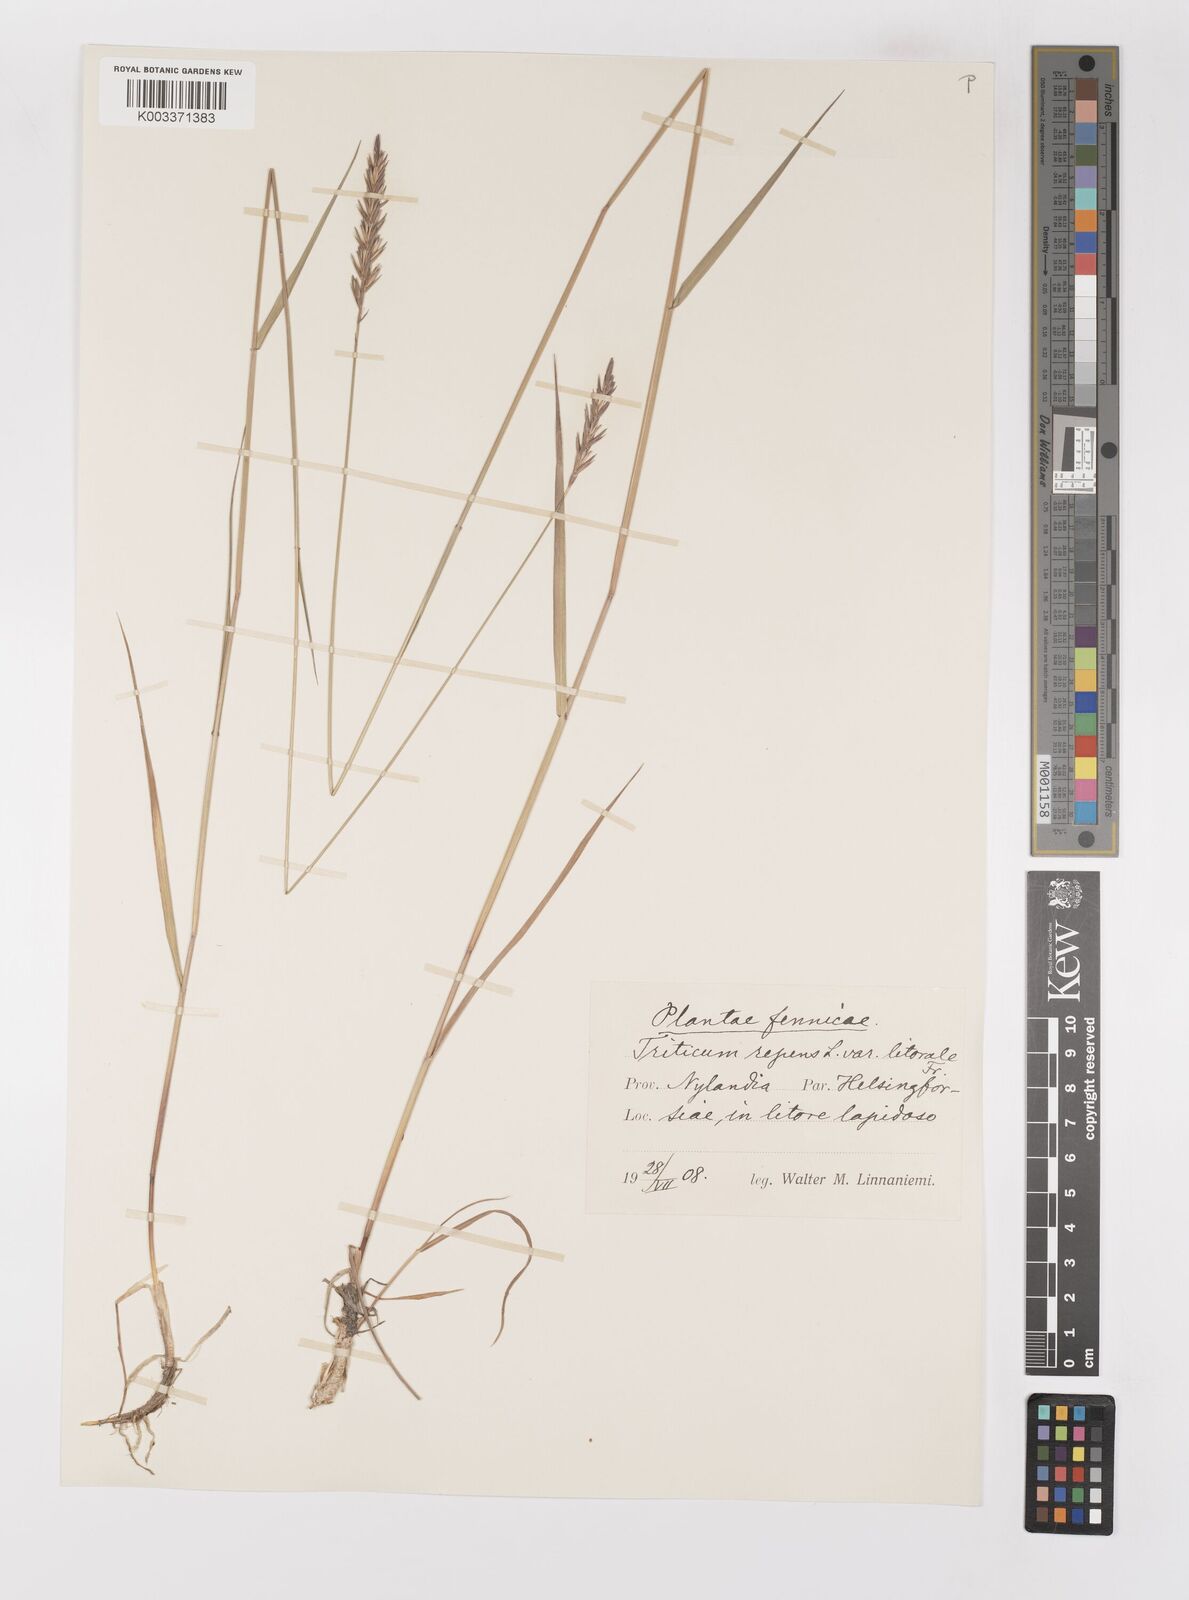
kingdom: Plantae
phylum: Tracheophyta
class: Liliopsida
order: Poales
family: Poaceae
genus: Elymus
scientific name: Elymus repens
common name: Quackgrass
